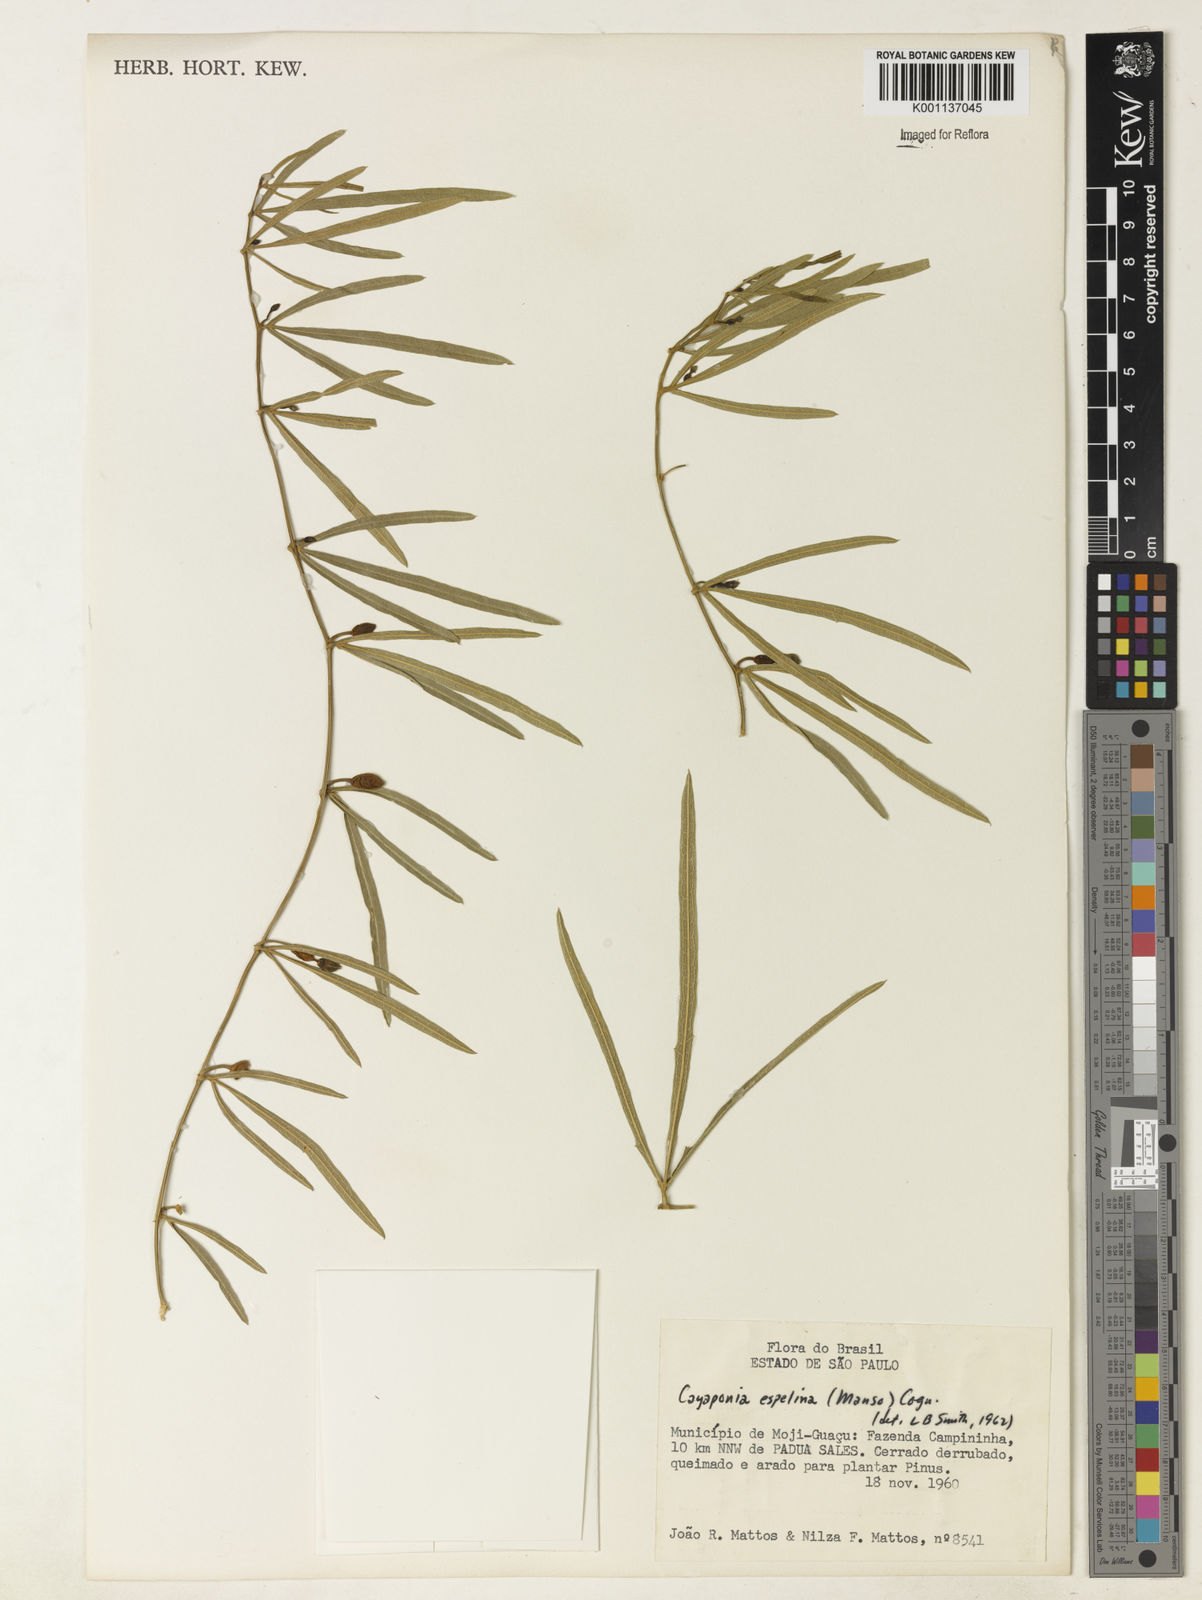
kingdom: Plantae
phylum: Tracheophyta
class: Magnoliopsida
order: Cucurbitales
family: Cucurbitaceae
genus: Cayaponia
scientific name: Cayaponia espelina
